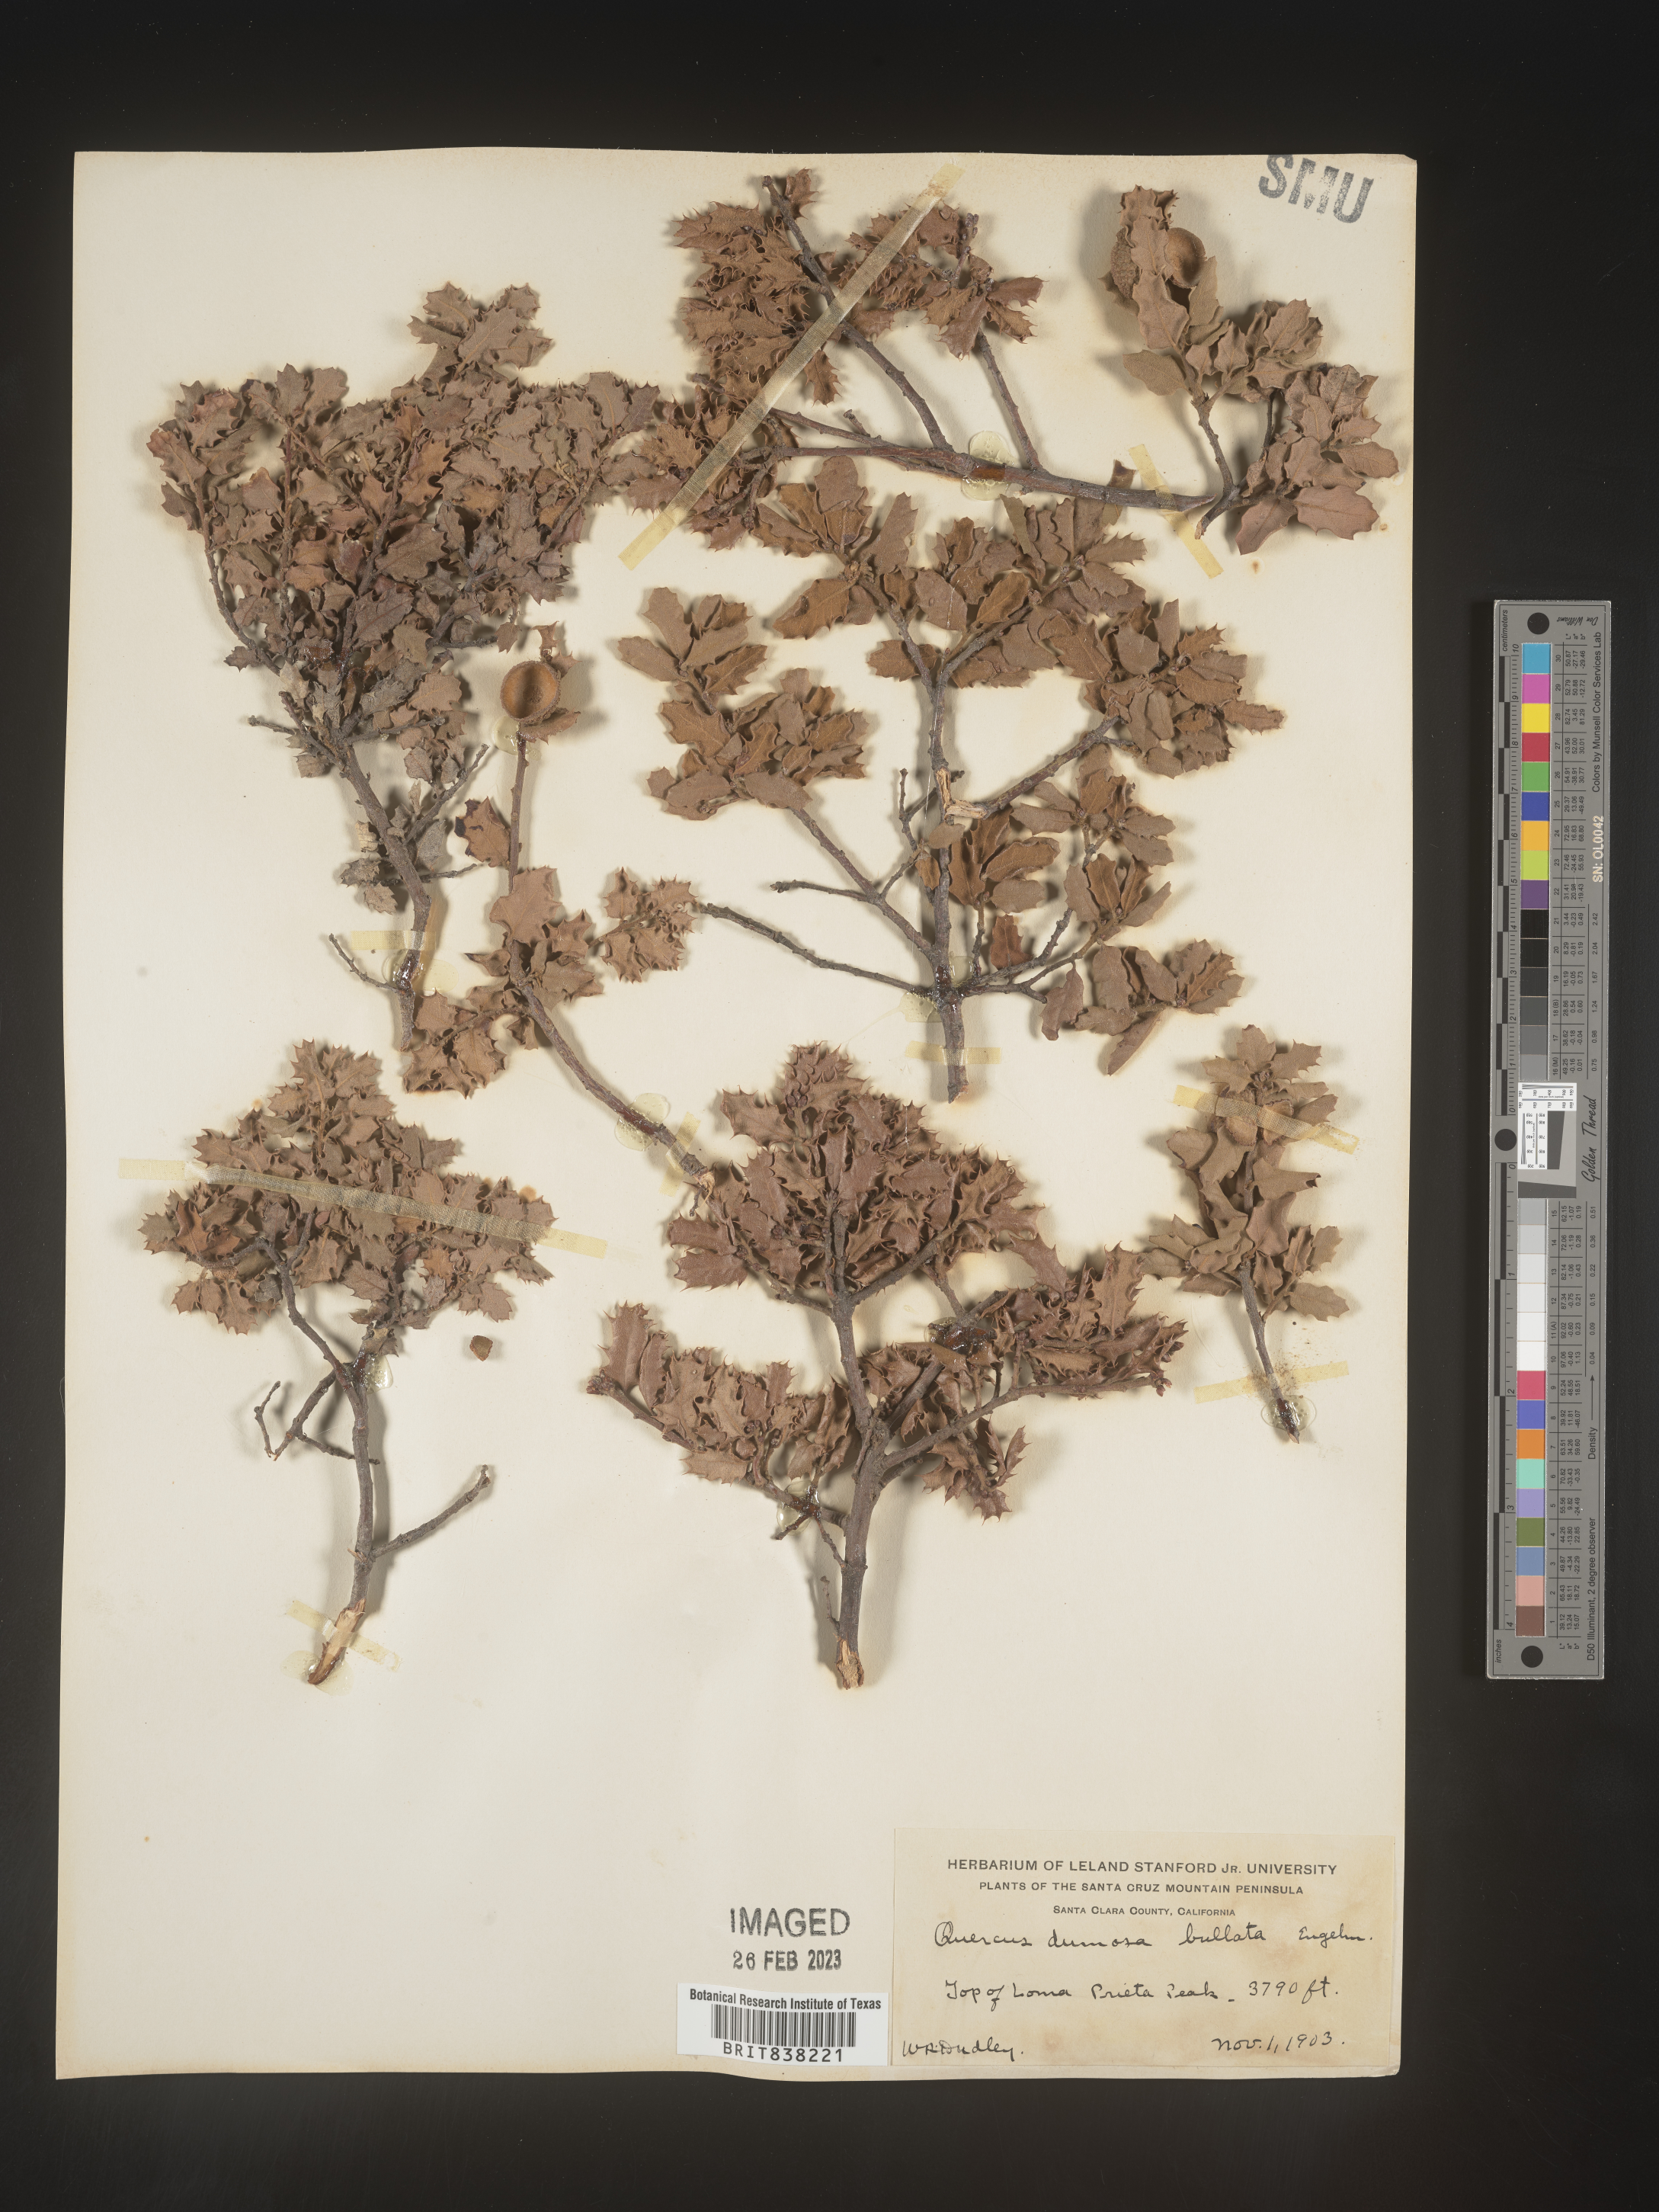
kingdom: Plantae
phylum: Tracheophyta
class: Magnoliopsida
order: Fagales
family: Fagaceae
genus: Quercus
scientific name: Quercus
